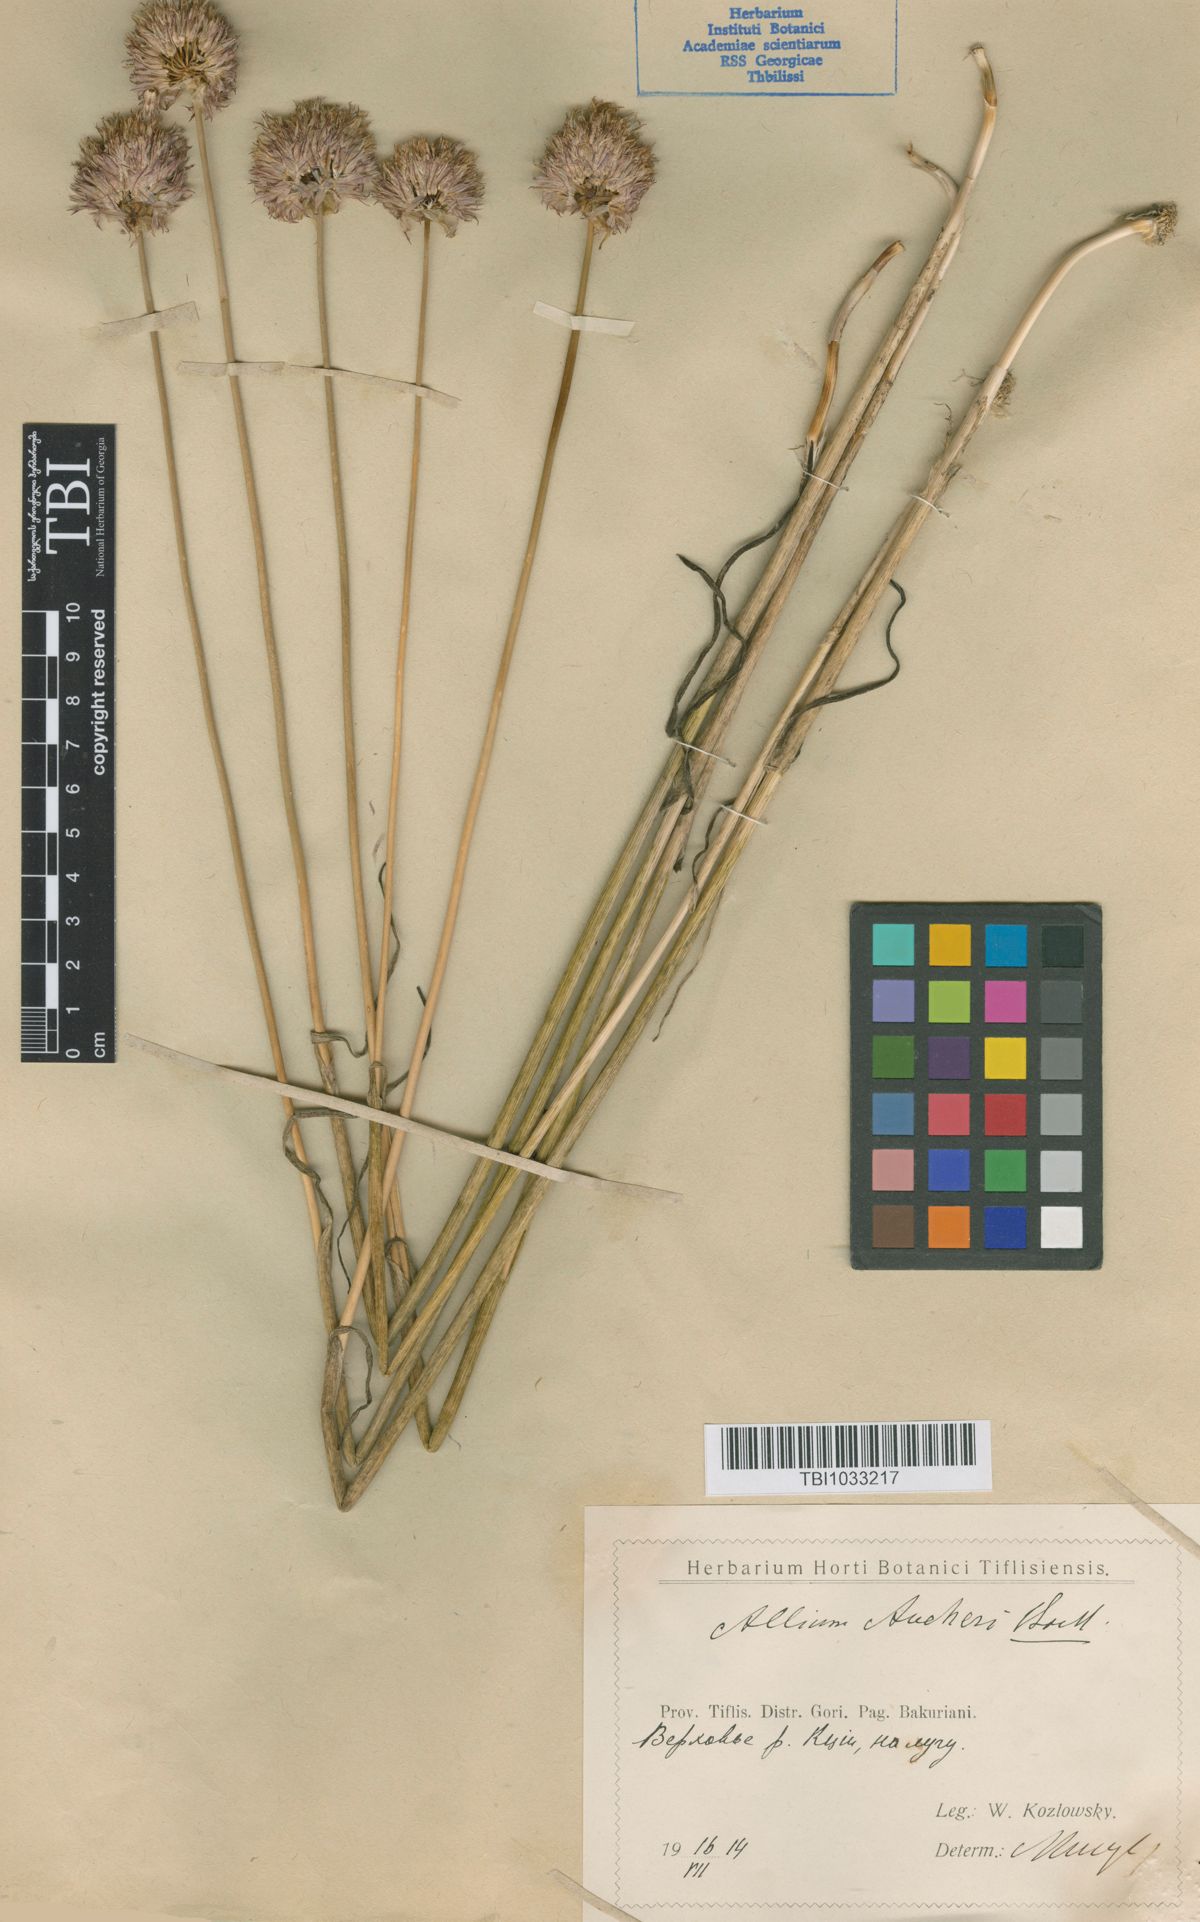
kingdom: Plantae
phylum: Tracheophyta
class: Liliopsida
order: Asparagales
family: Amaryllidaceae
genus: Allium
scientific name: Allium aucheri
